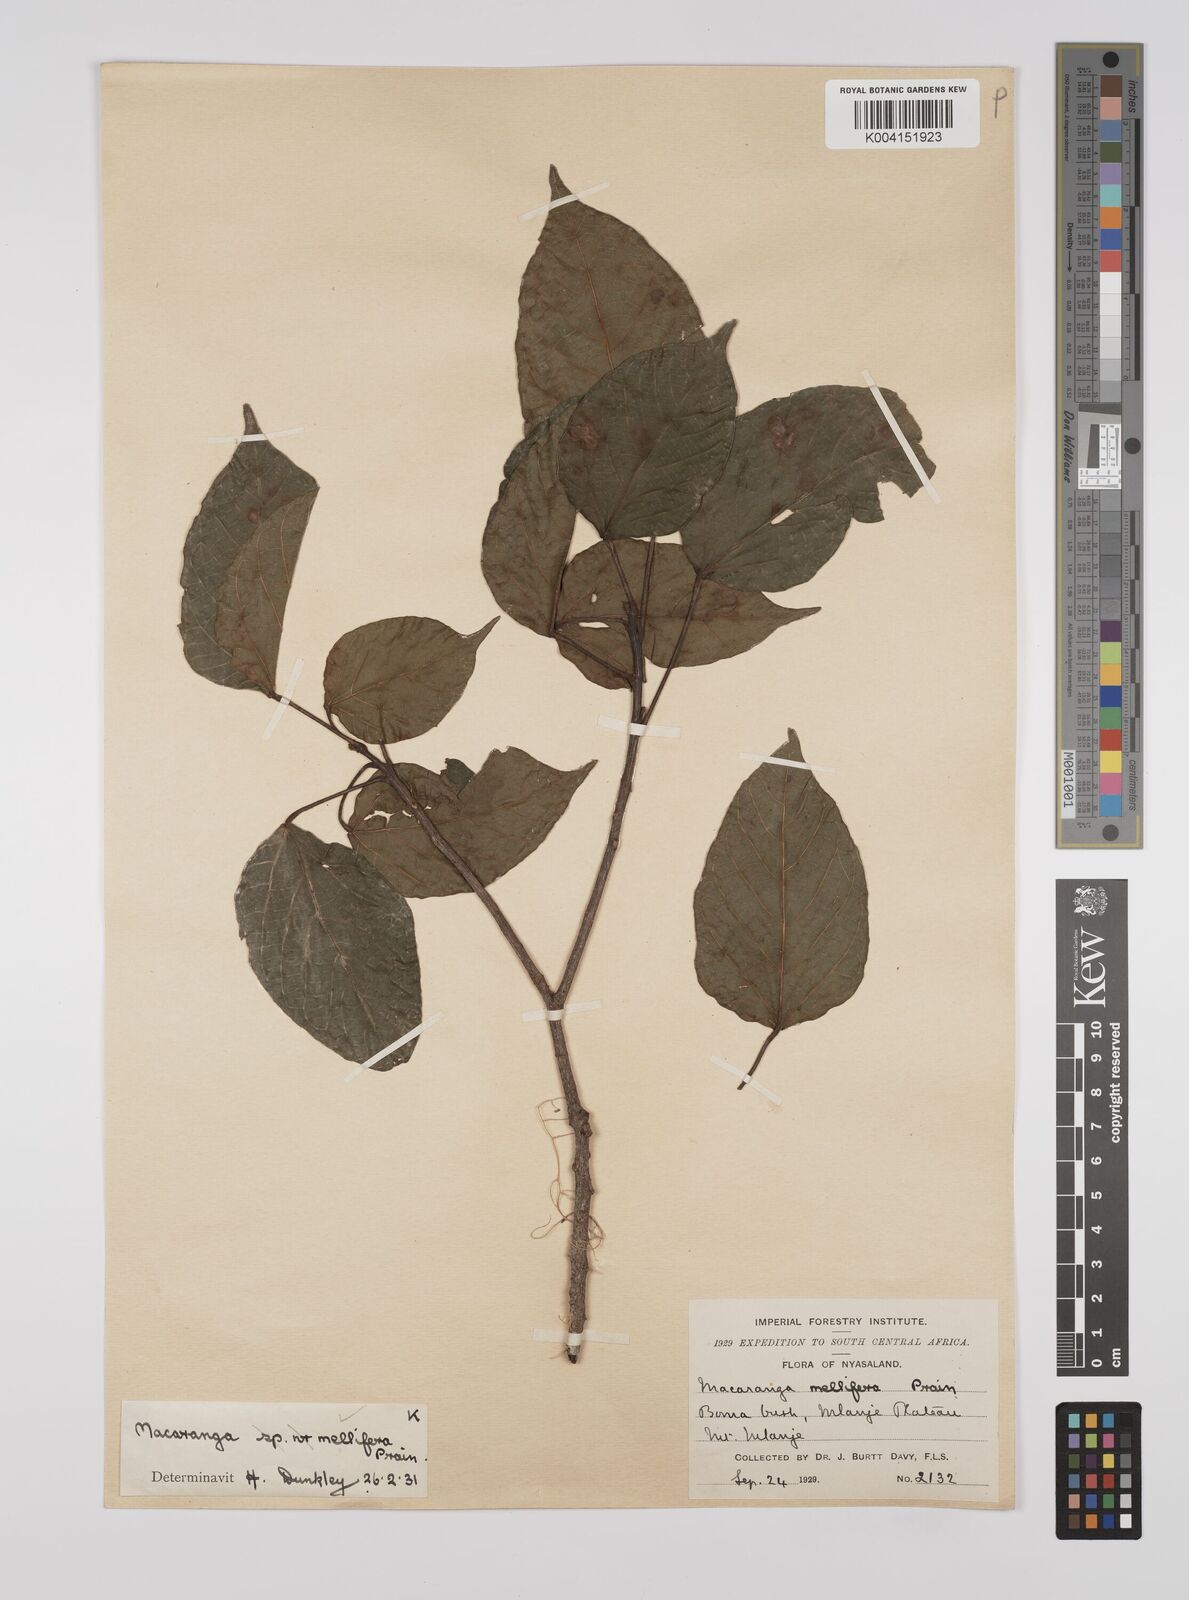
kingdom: Plantae
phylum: Tracheophyta
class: Magnoliopsida
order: Malpighiales
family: Euphorbiaceae
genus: Macaranga
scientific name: Macaranga mellifera
